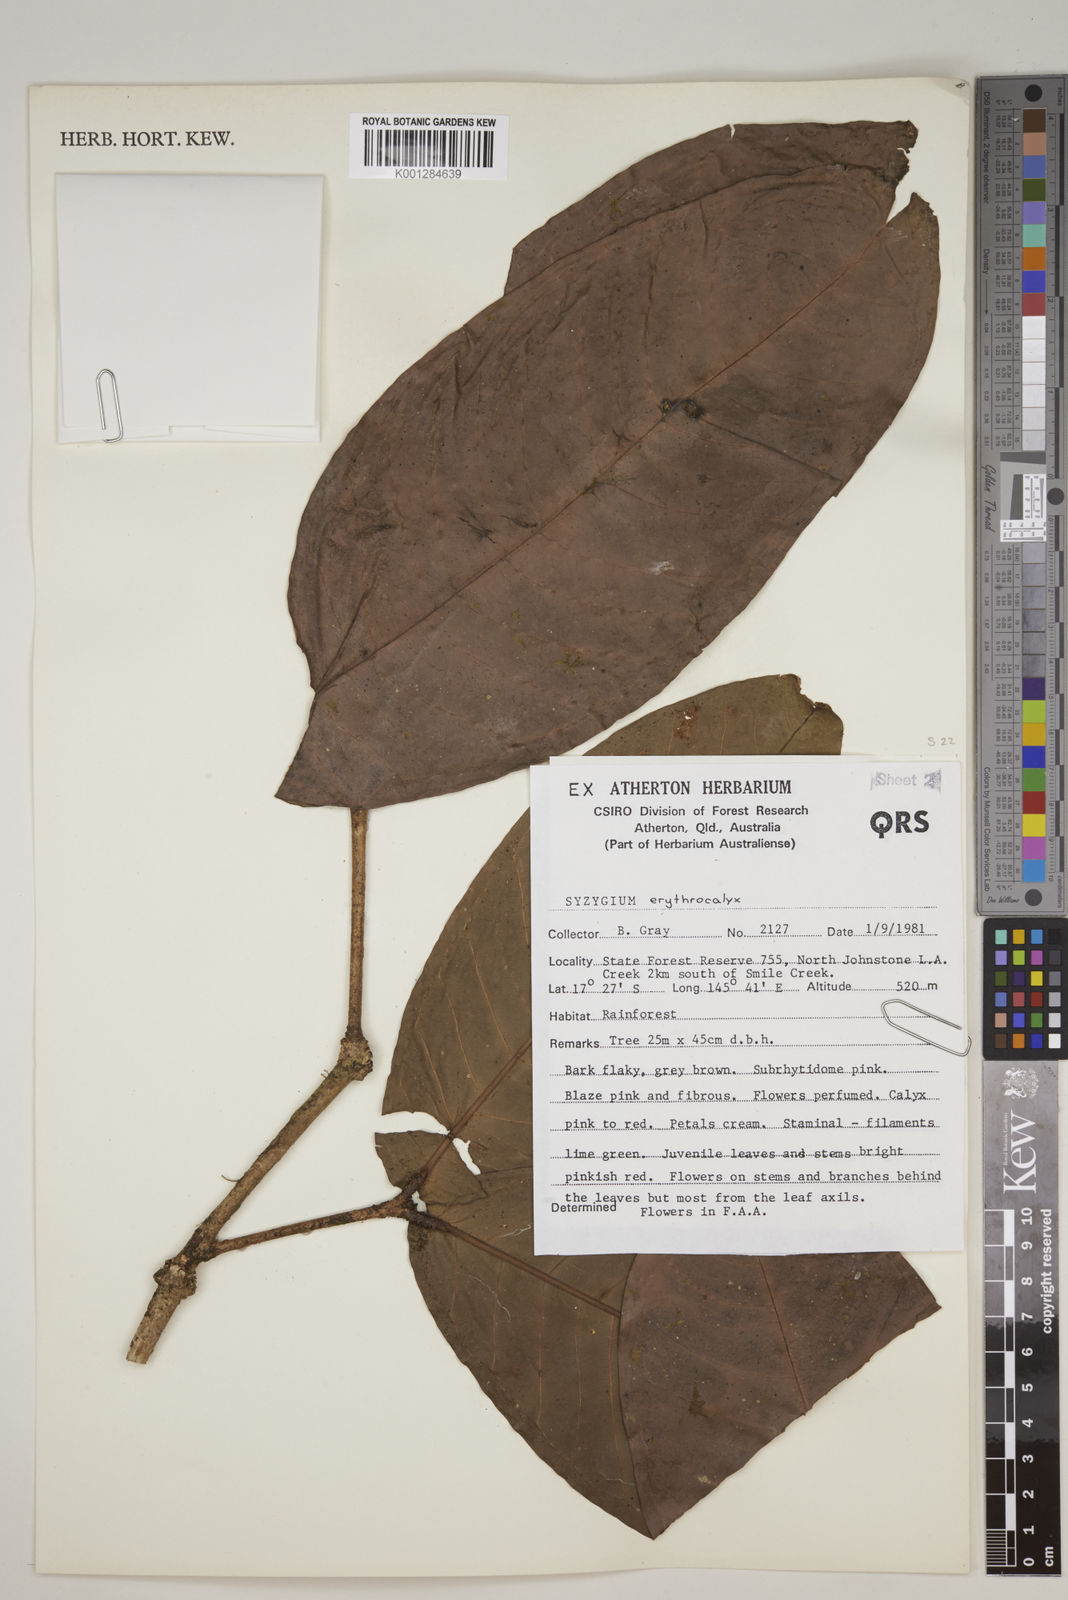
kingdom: Plantae
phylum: Tracheophyta
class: Magnoliopsida
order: Myrtales
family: Myrtaceae
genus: Syzygium
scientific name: Syzygium erythrocalyx
